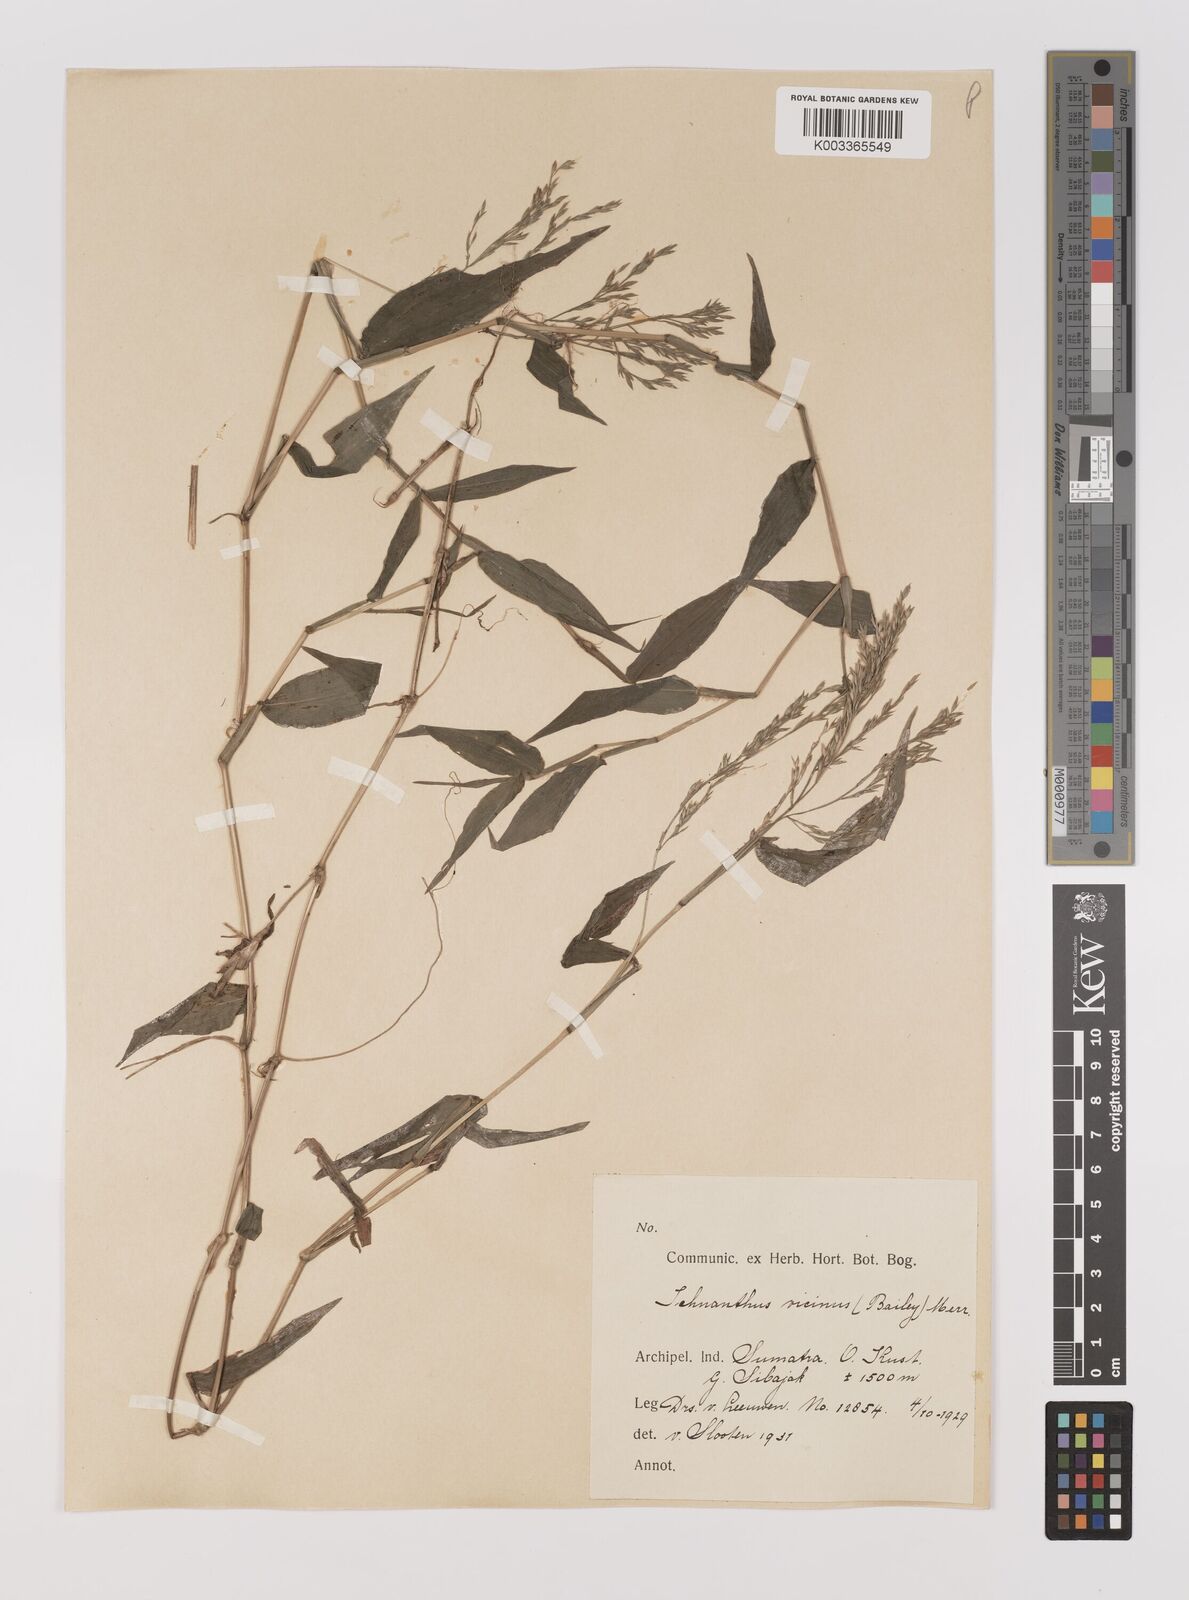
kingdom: Plantae
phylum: Tracheophyta
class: Liliopsida
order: Poales
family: Poaceae
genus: Ichnanthus
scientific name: Ichnanthus pallens
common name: Water grass
